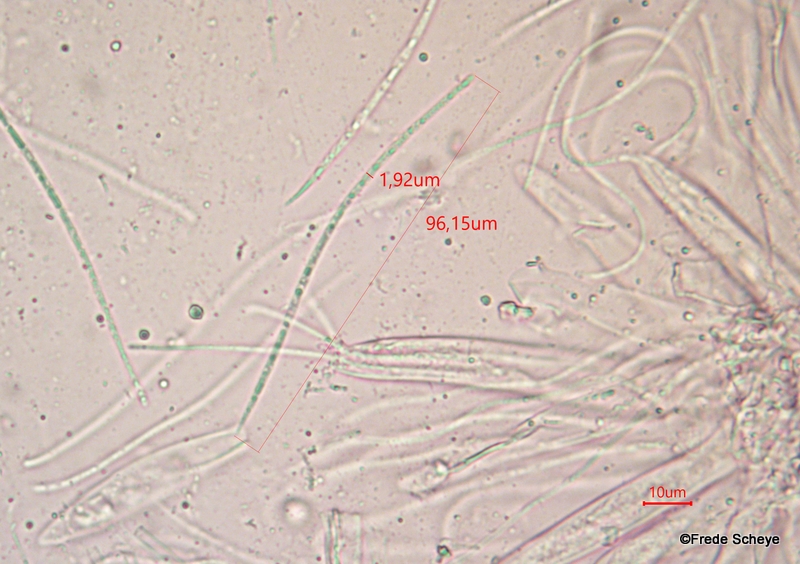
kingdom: Fungi
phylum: Ascomycota
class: Leotiomycetes
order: Rhytismatales
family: Rhytismataceae
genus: Lophodermium
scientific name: Lophodermium pinastri
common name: fyrre-fureplet
